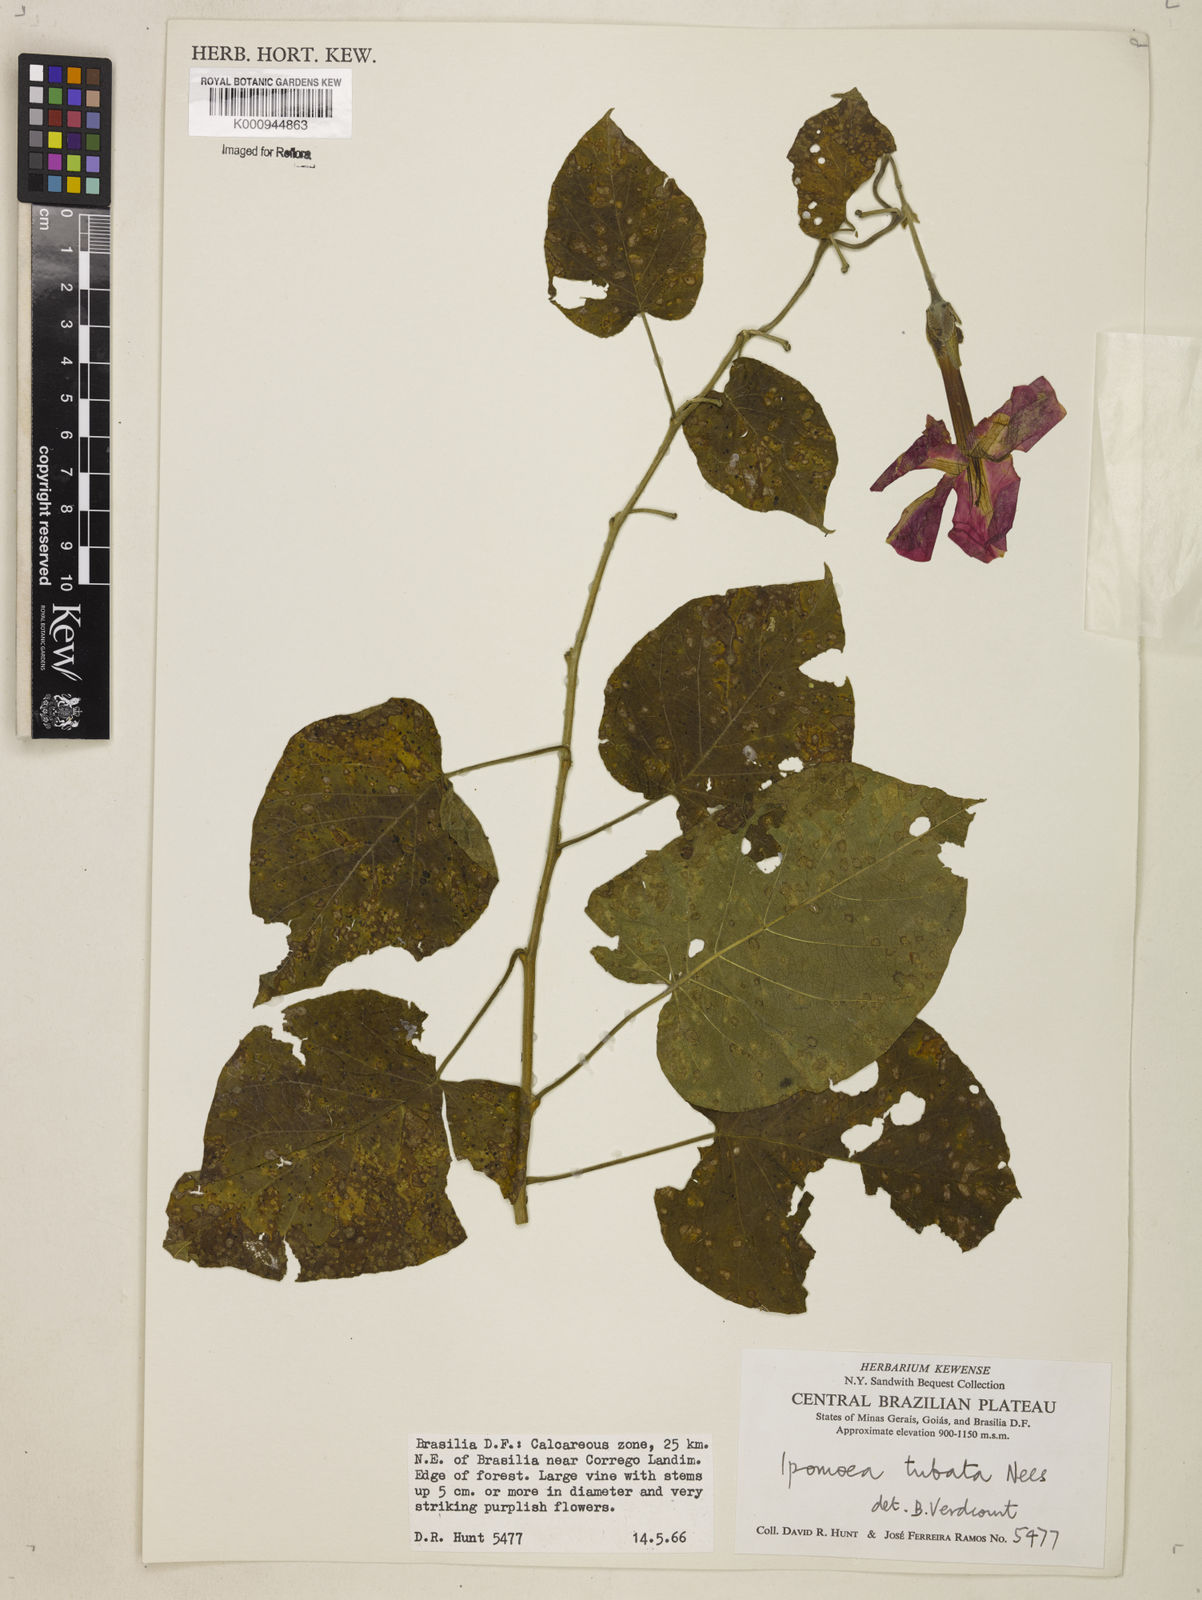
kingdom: Plantae
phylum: Tracheophyta
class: Magnoliopsida
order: Solanales
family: Convolvulaceae
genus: Ipomoea
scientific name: Ipomoea sidifolia
